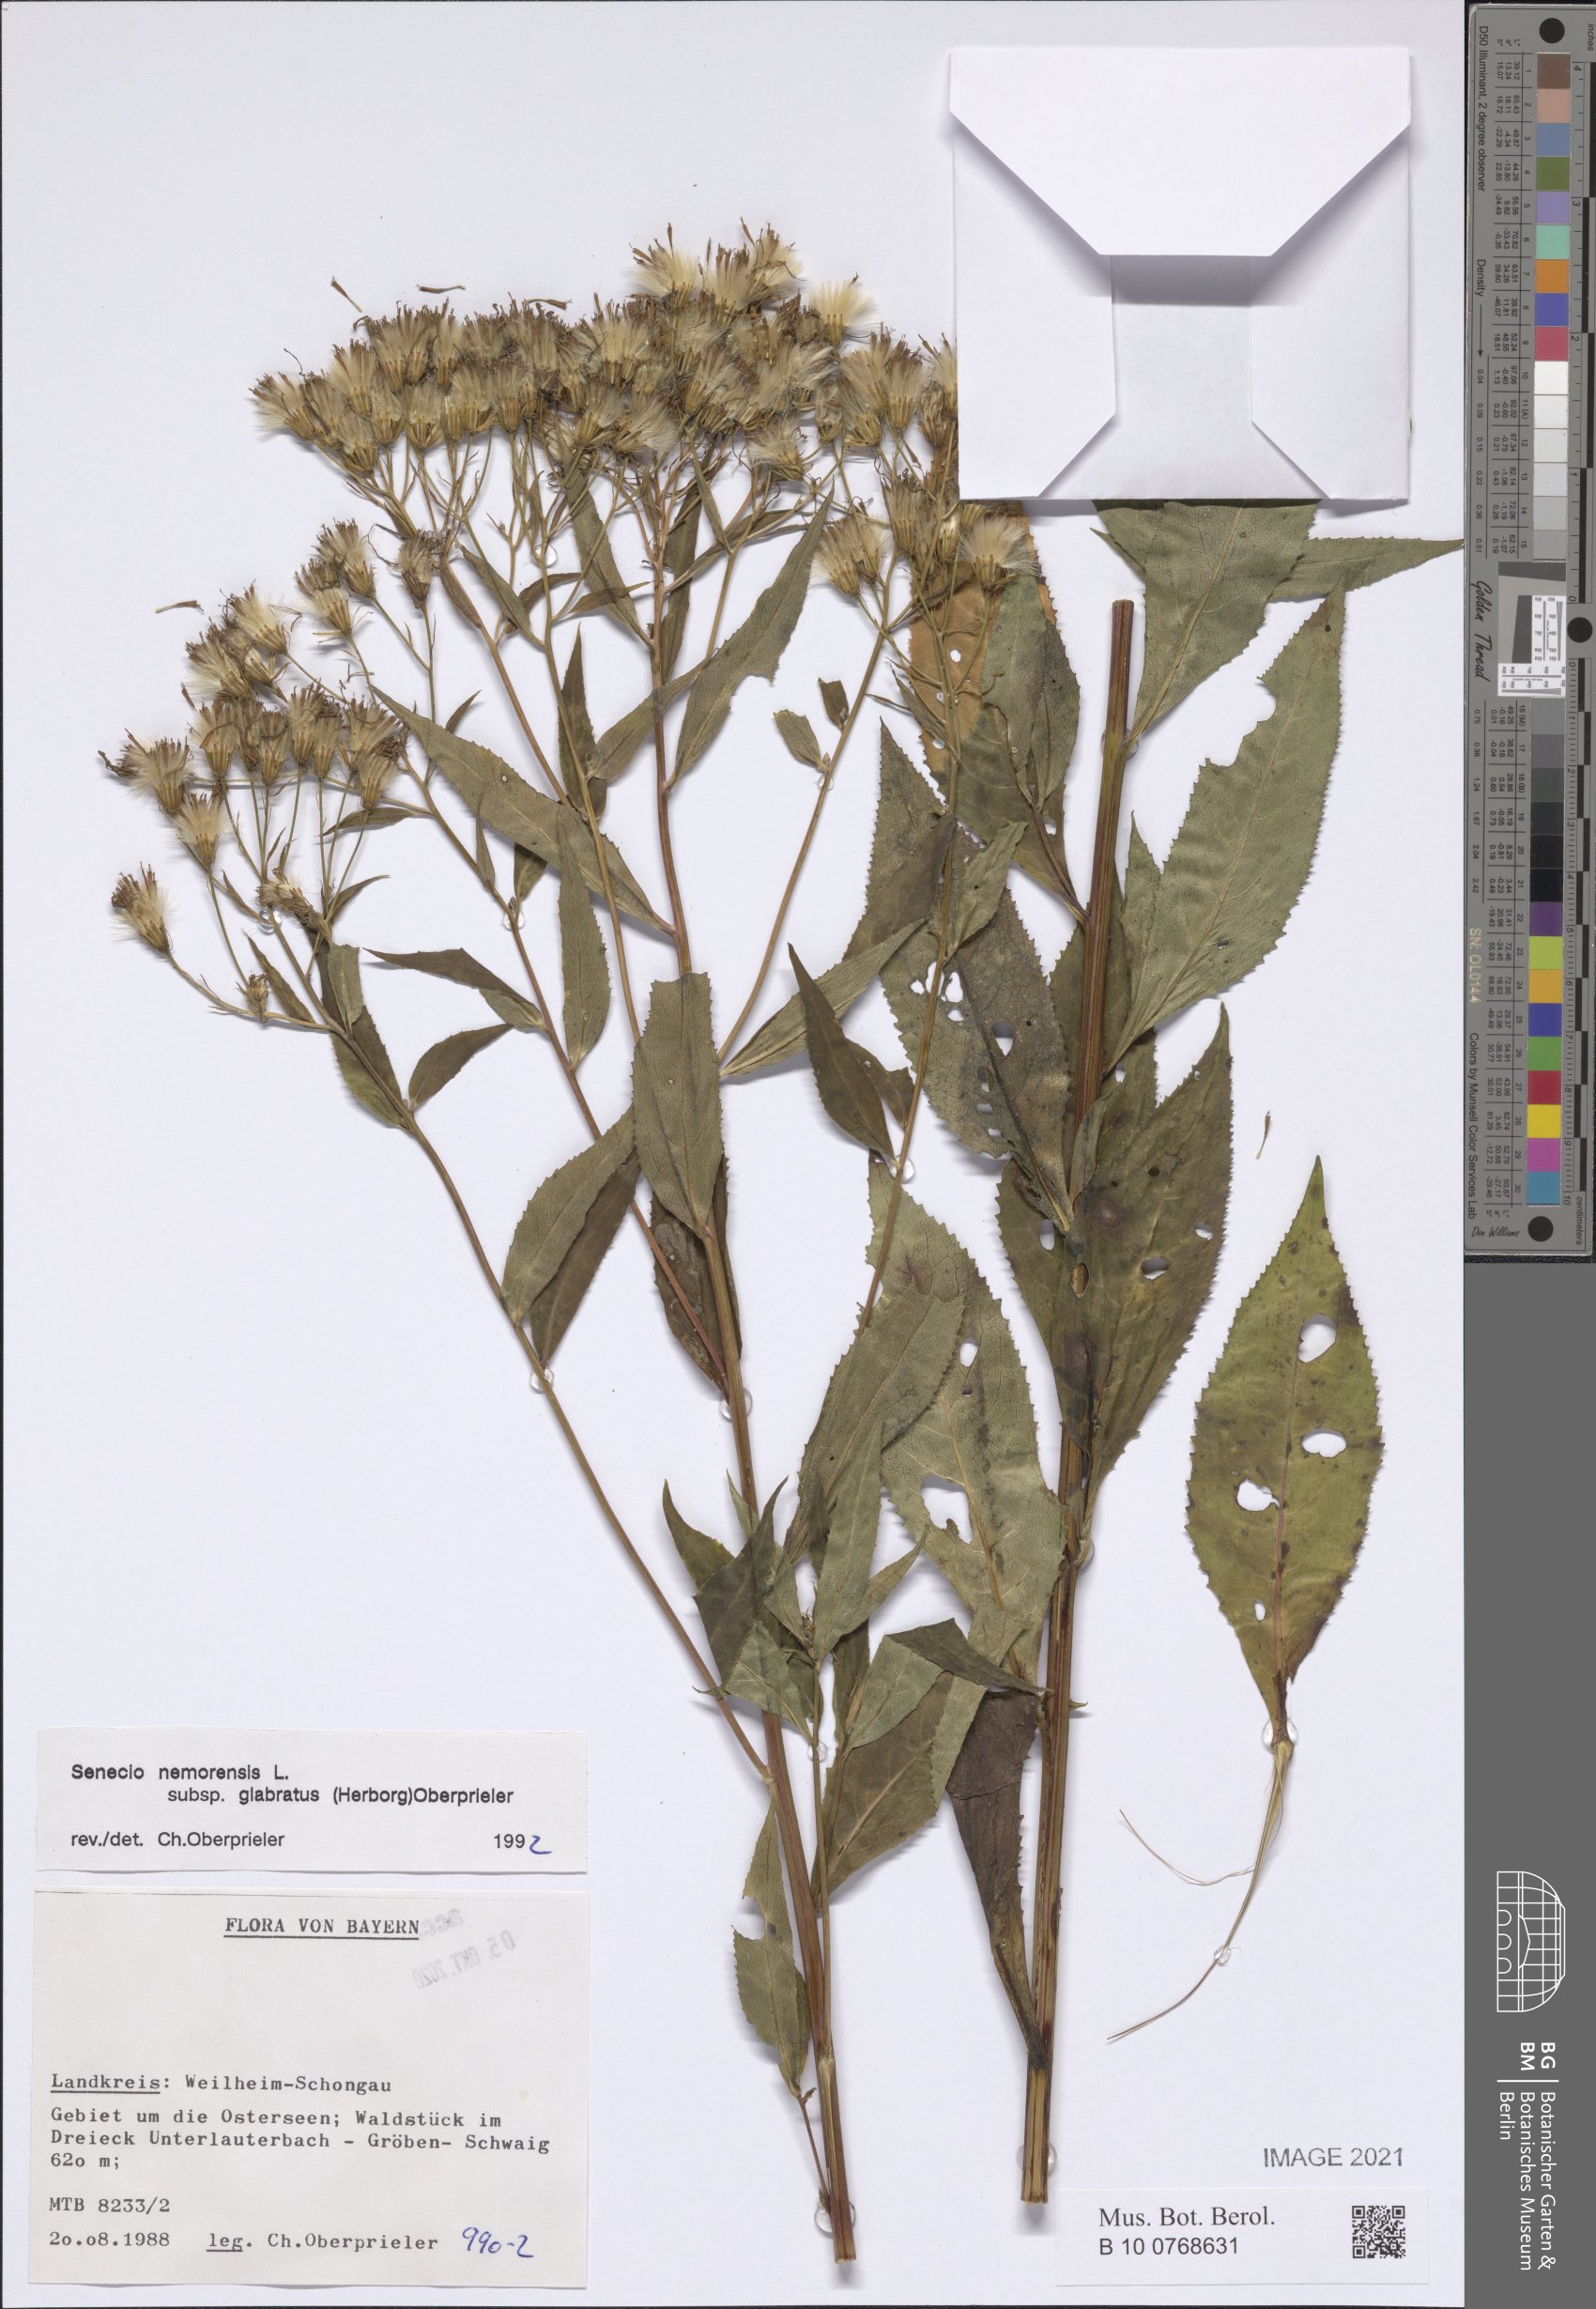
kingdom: Plantae
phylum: Tracheophyta
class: Magnoliopsida
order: Asterales
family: Asteraceae
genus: Senecio
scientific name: Senecio germanicus
